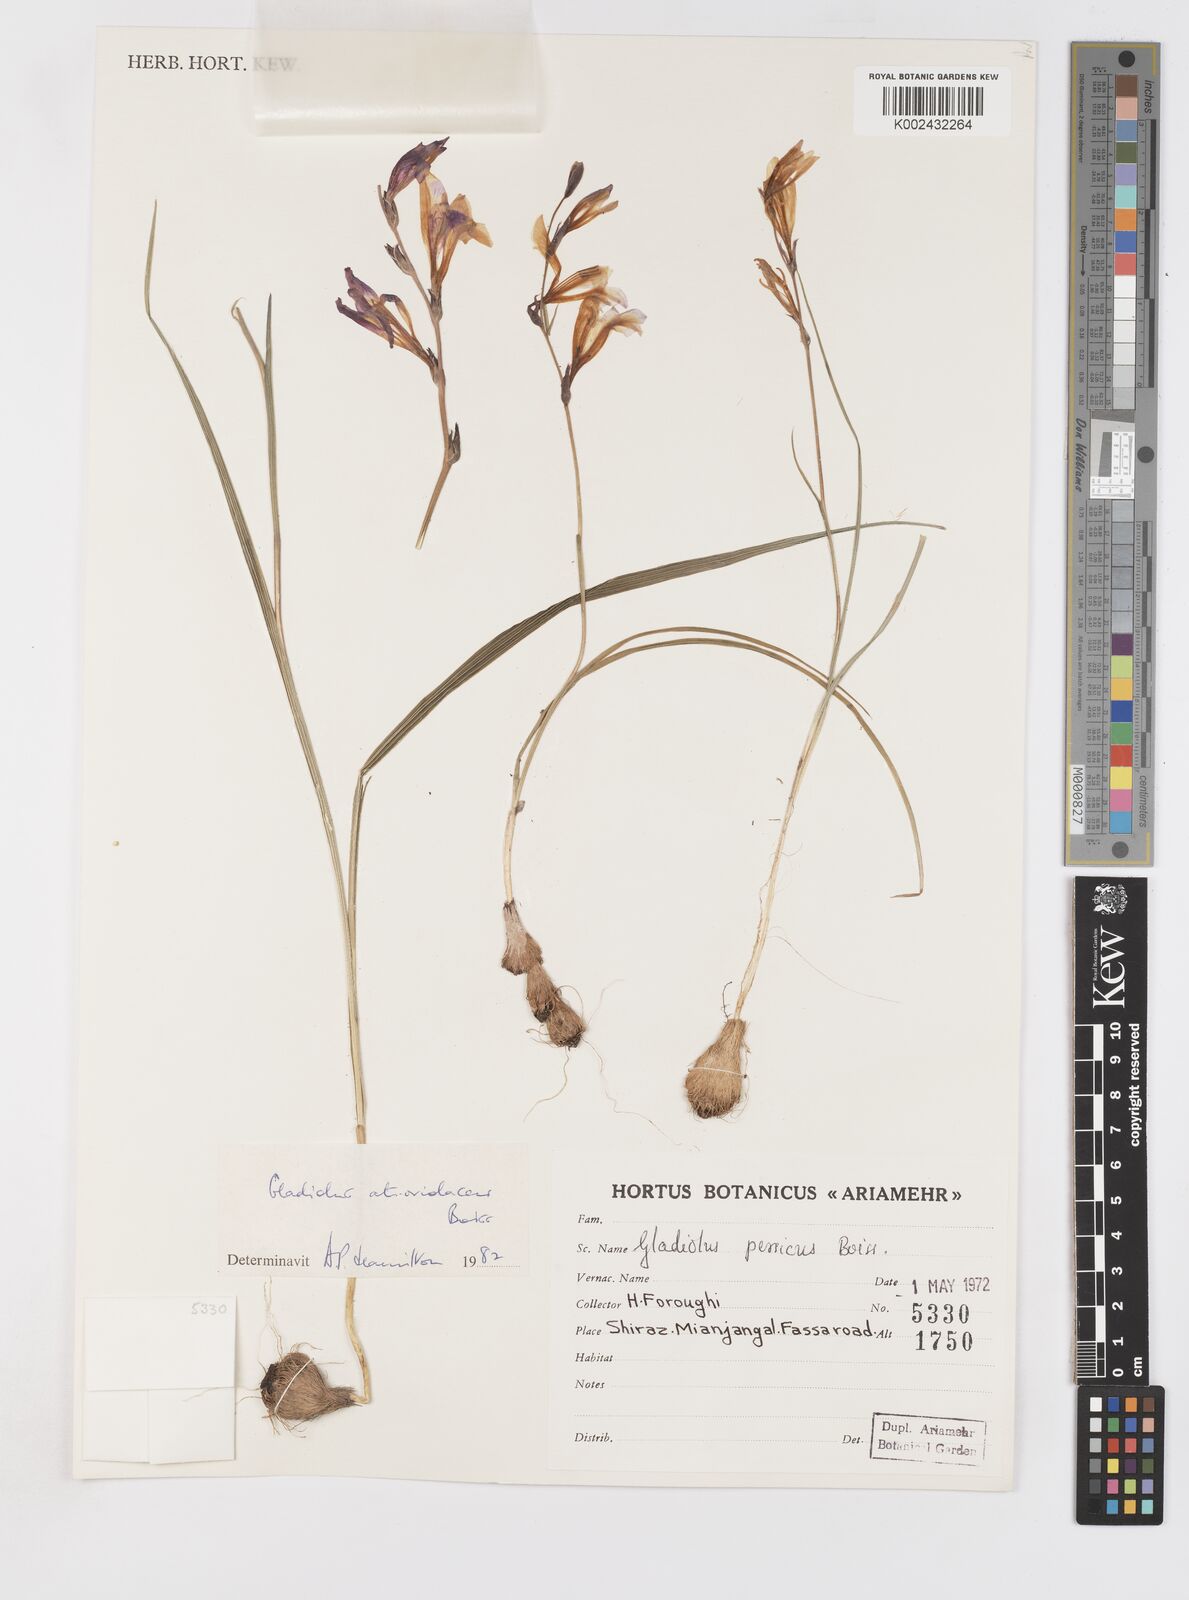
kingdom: Plantae
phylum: Tracheophyta
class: Liliopsida
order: Asparagales
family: Iridaceae
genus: Gladiolus
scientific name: Gladiolus atroviolaceus
